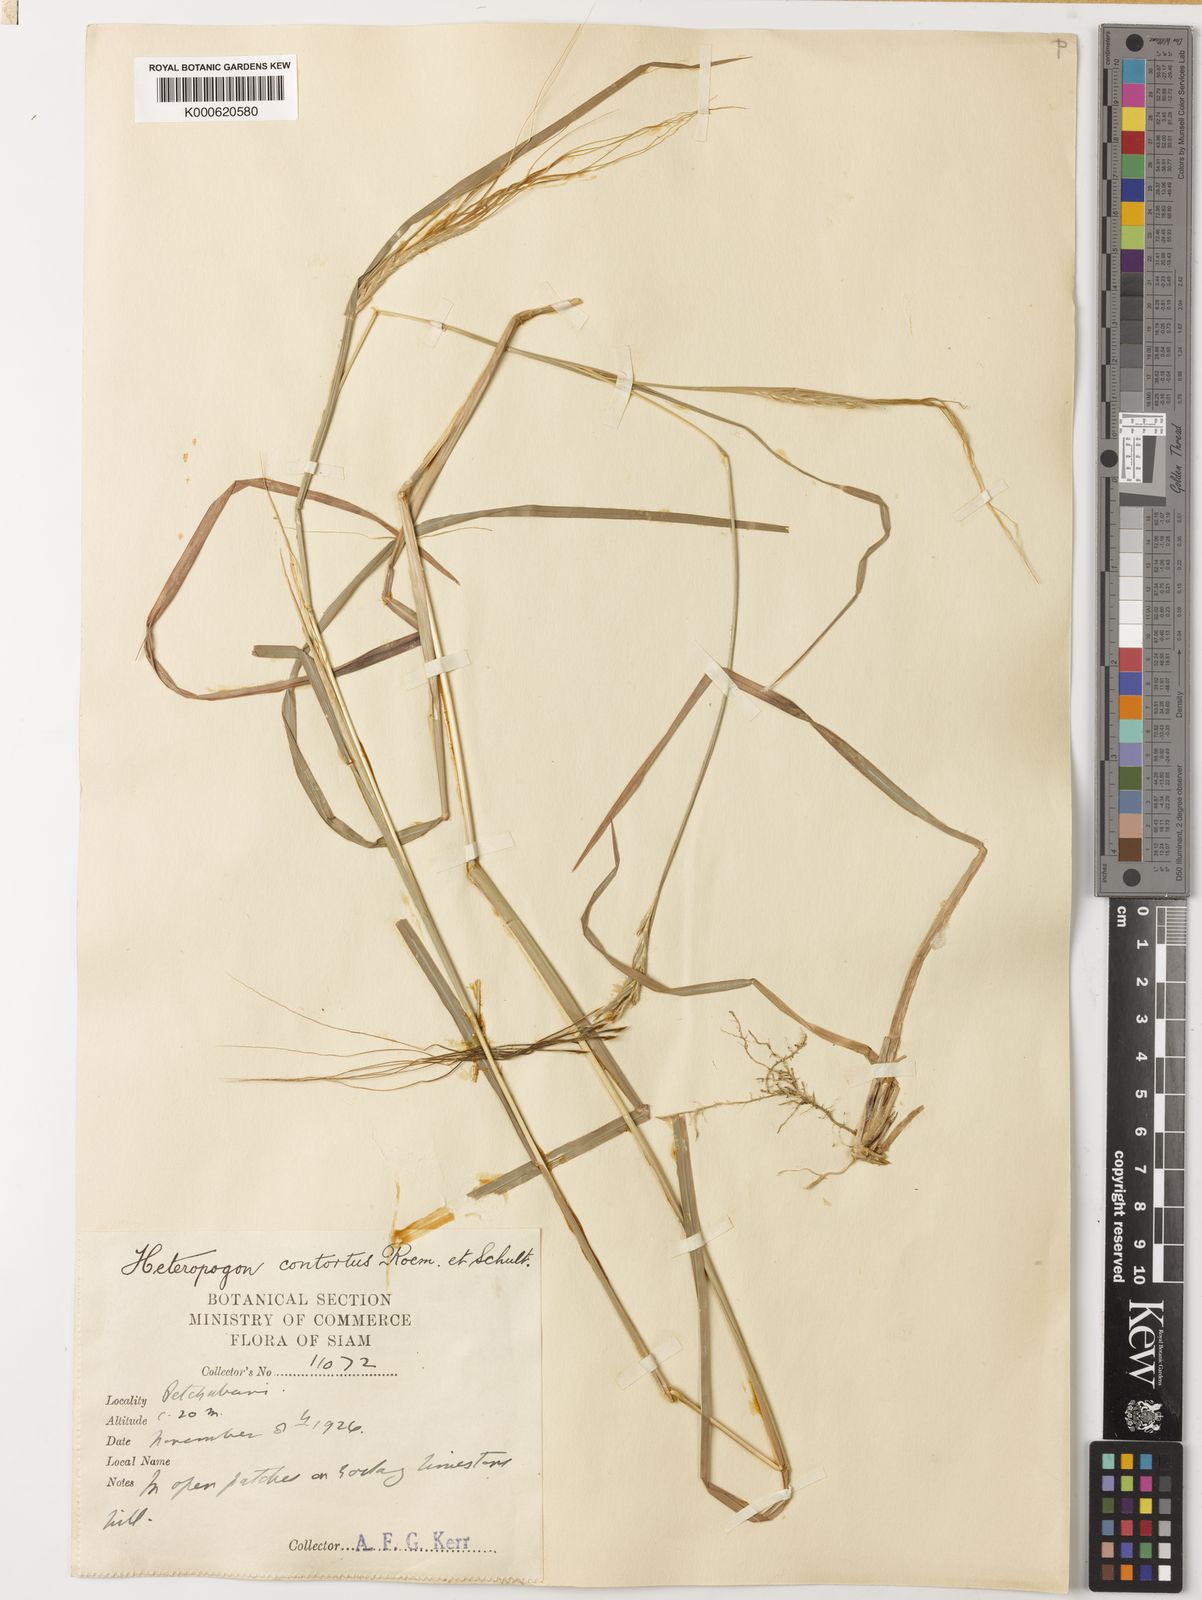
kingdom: Plantae
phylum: Tracheophyta
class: Liliopsida
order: Poales
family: Poaceae
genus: Heteropogon
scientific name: Heteropogon contortus
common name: Tanglehead
